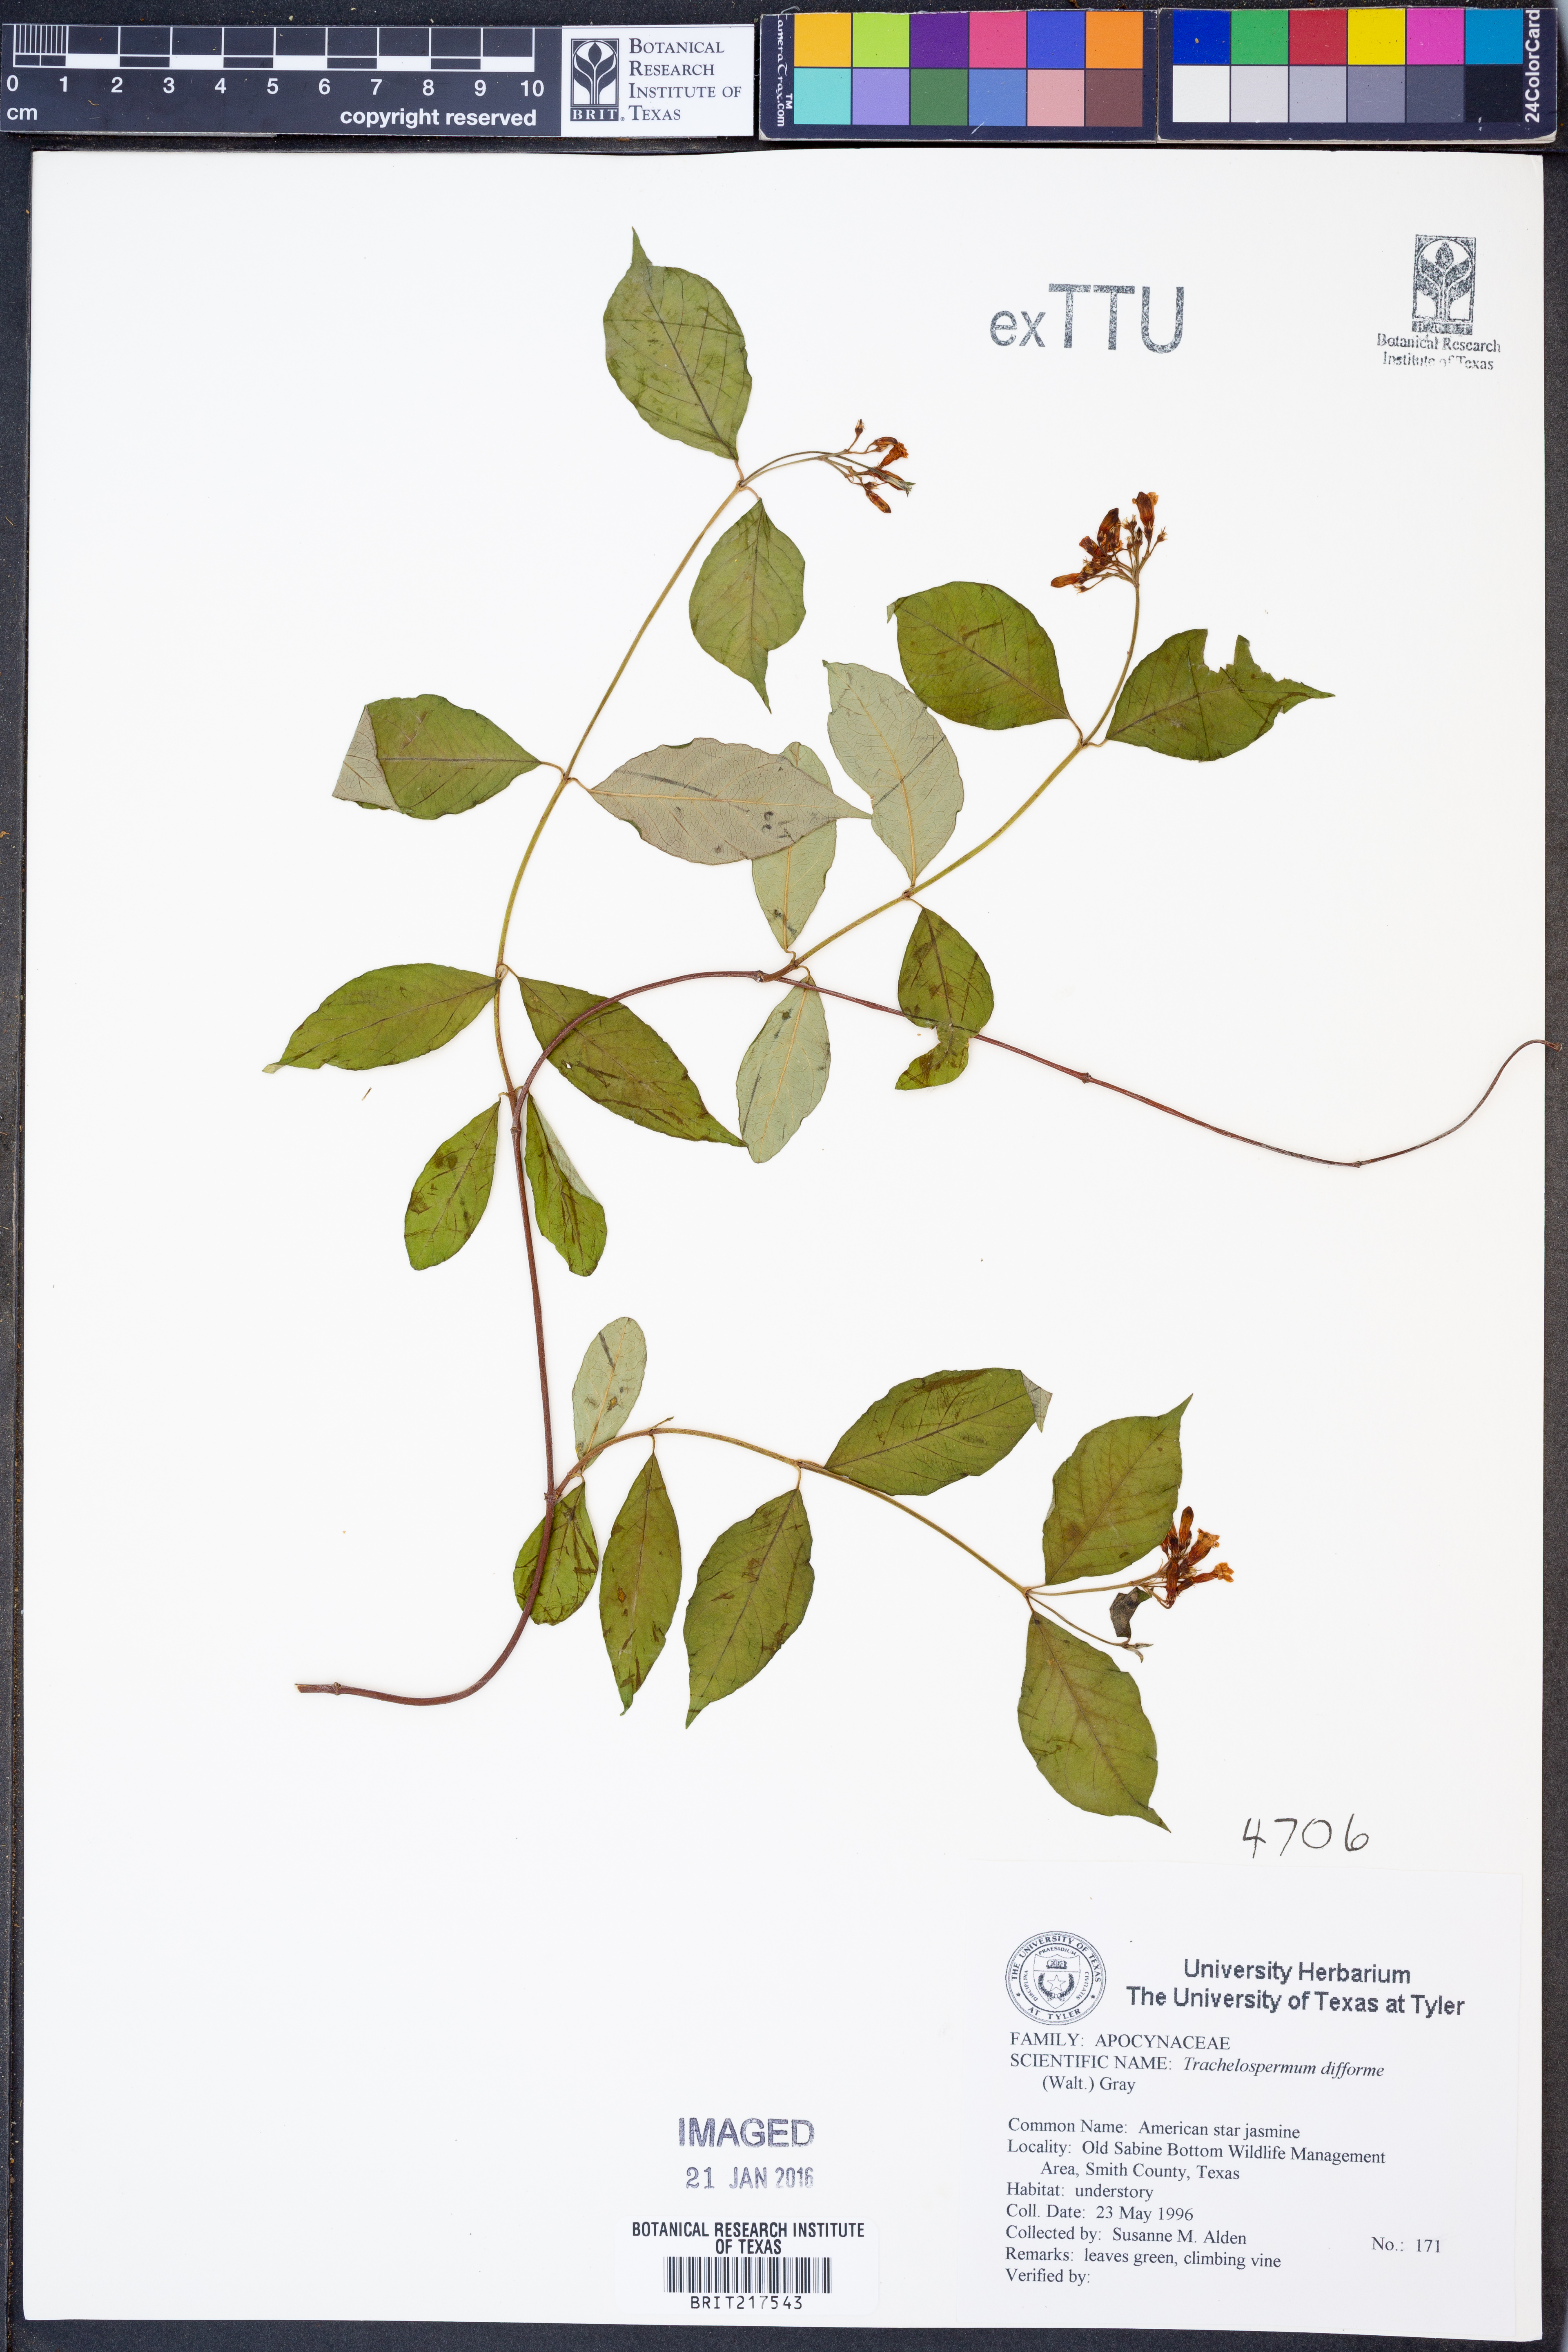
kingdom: Plantae
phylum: Tracheophyta
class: Magnoliopsida
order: Gentianales
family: Apocynaceae
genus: Thyrsanthella
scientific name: Thyrsanthella difformis
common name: Climbing dogbane
